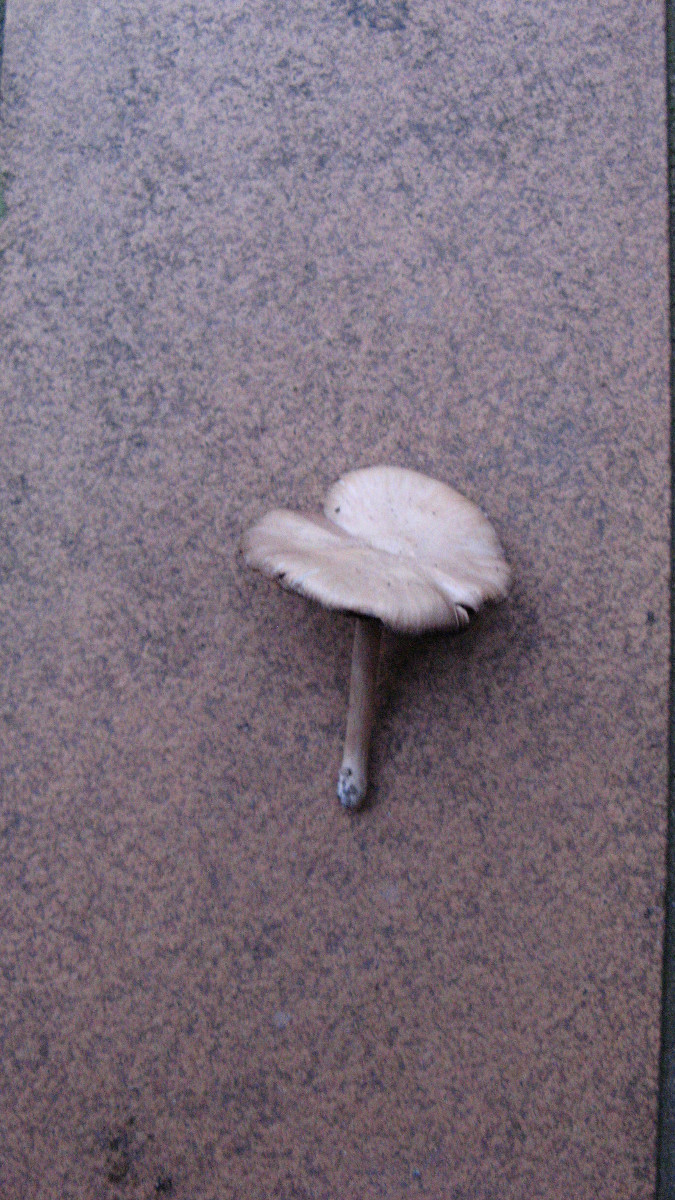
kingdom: Fungi
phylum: Basidiomycota
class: Agaricomycetes
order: Agaricales
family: Psathyrellaceae
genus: Candolleomyces
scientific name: Candolleomyces candolleanus
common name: Candolles mørkhat
